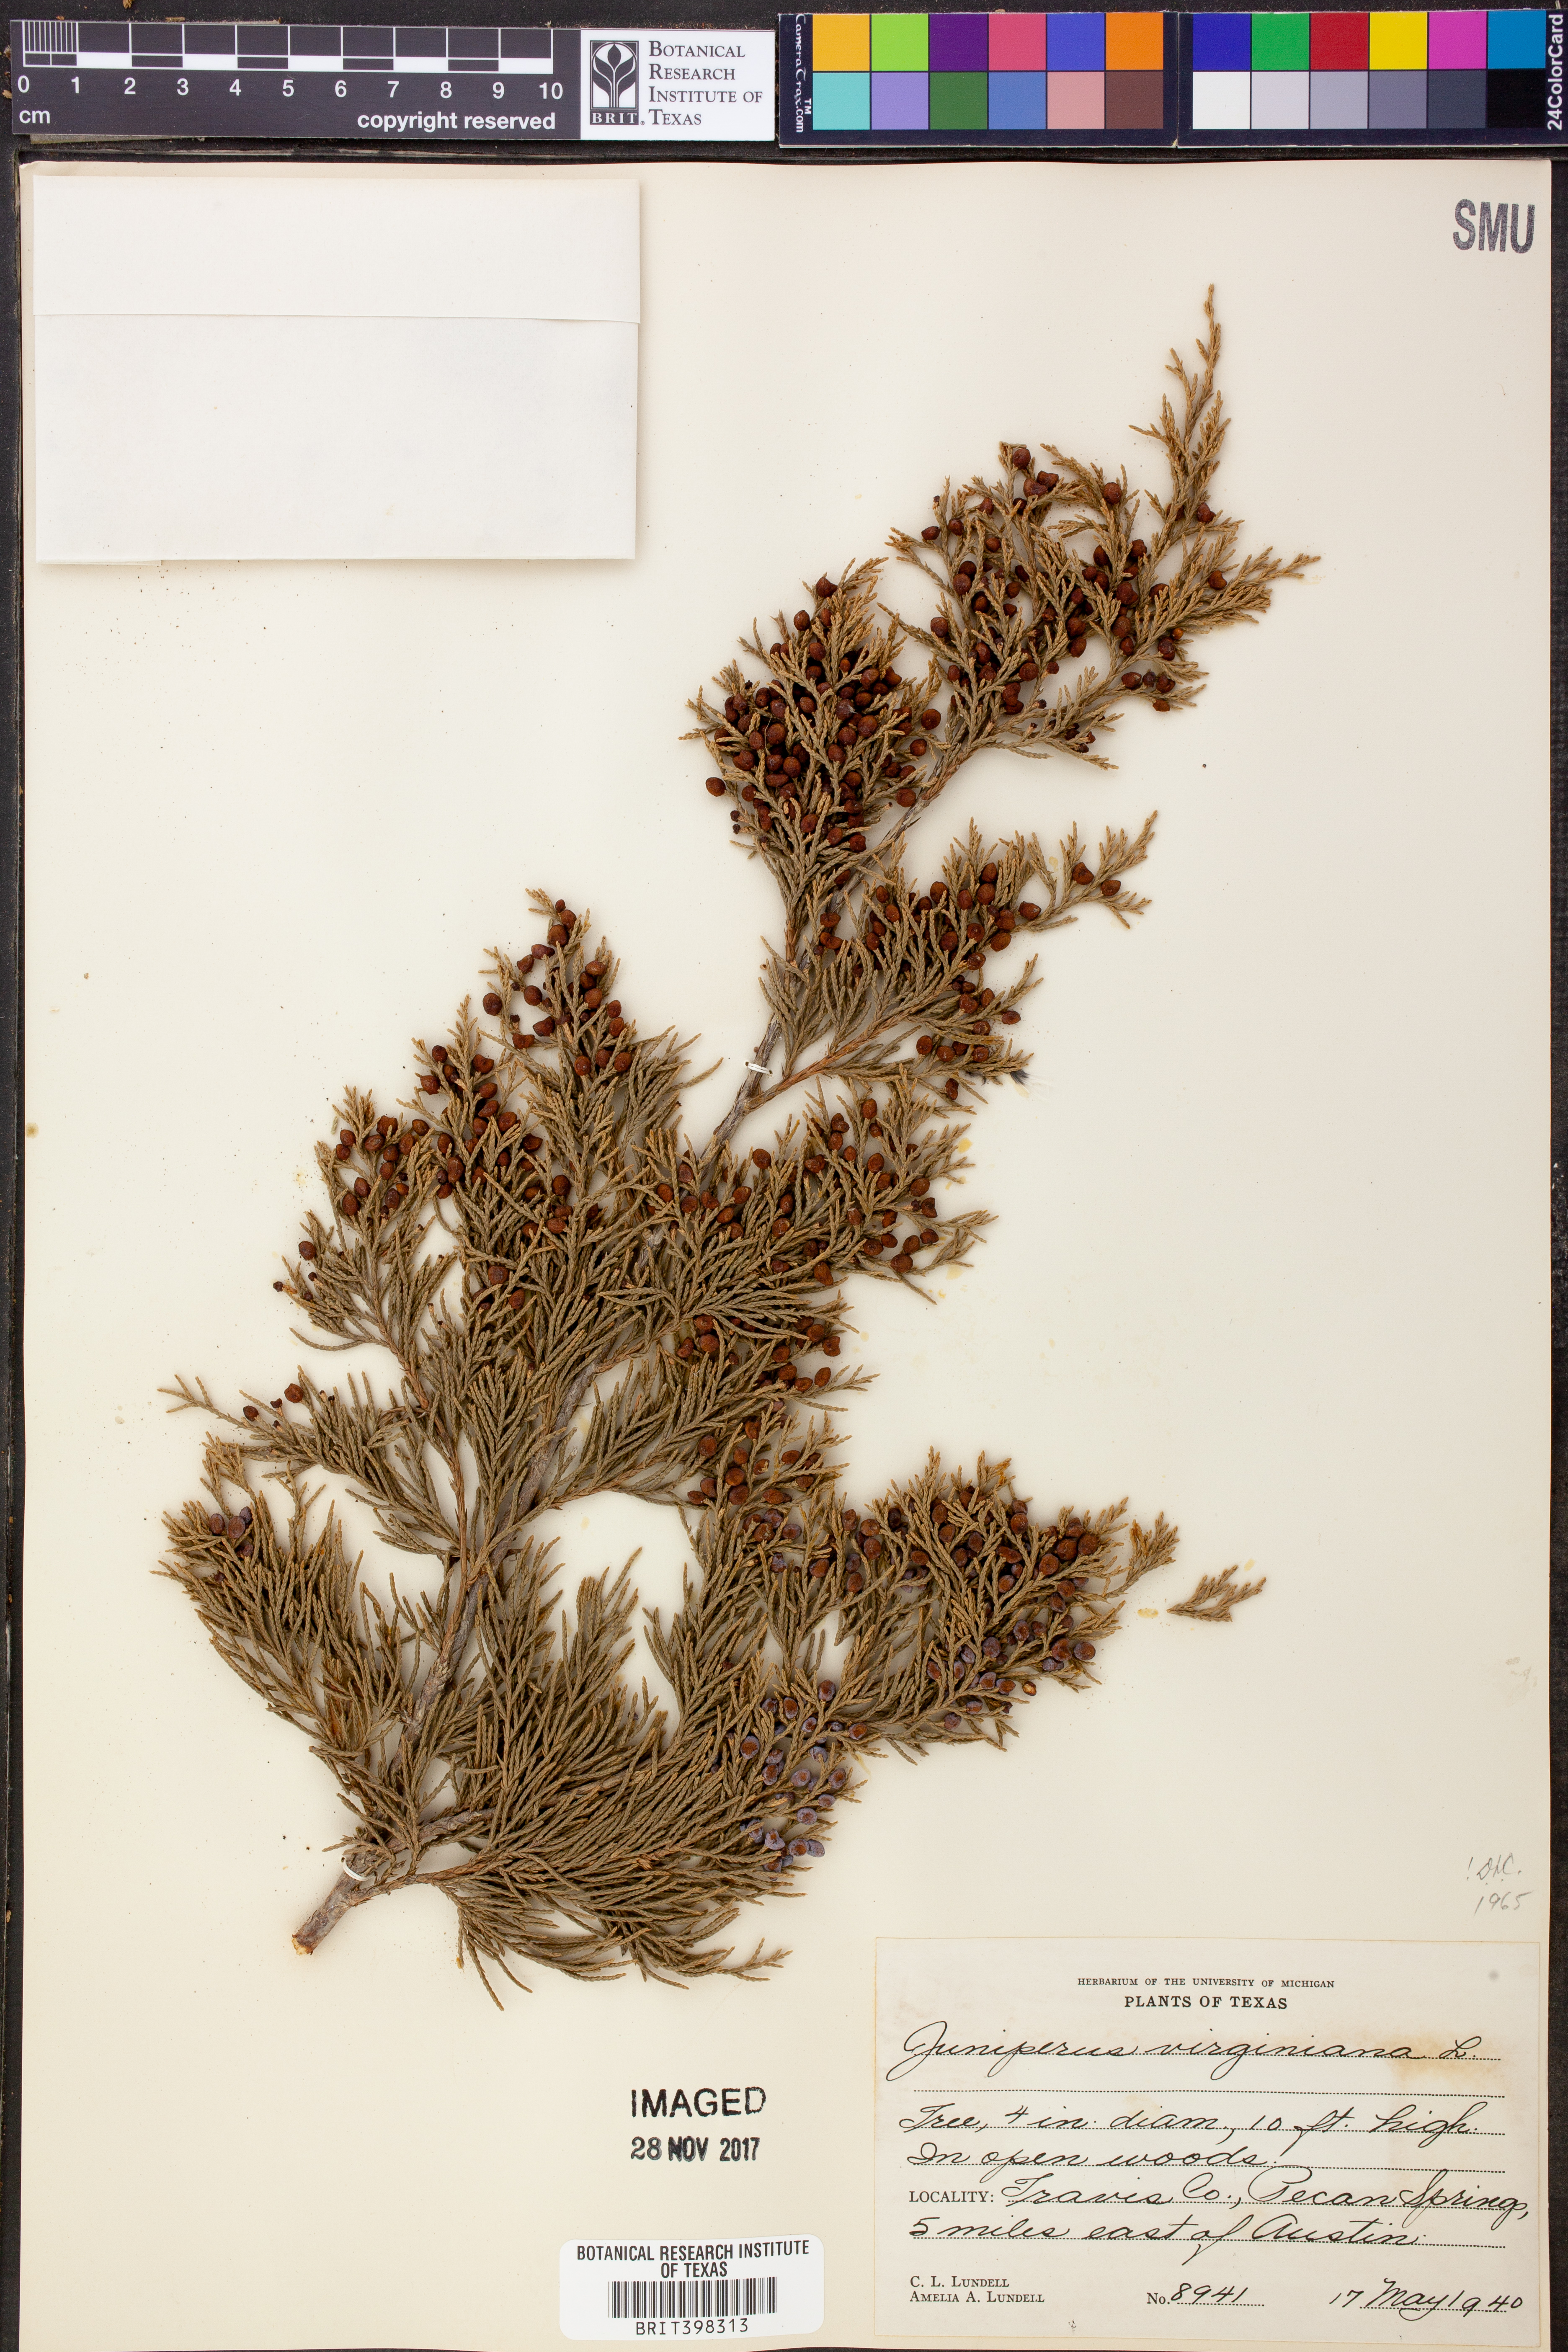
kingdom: Plantae
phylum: Tracheophyta
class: Pinopsida
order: Pinales
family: Cupressaceae
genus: Juniperus
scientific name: Juniperus virginiana
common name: Red juniper
